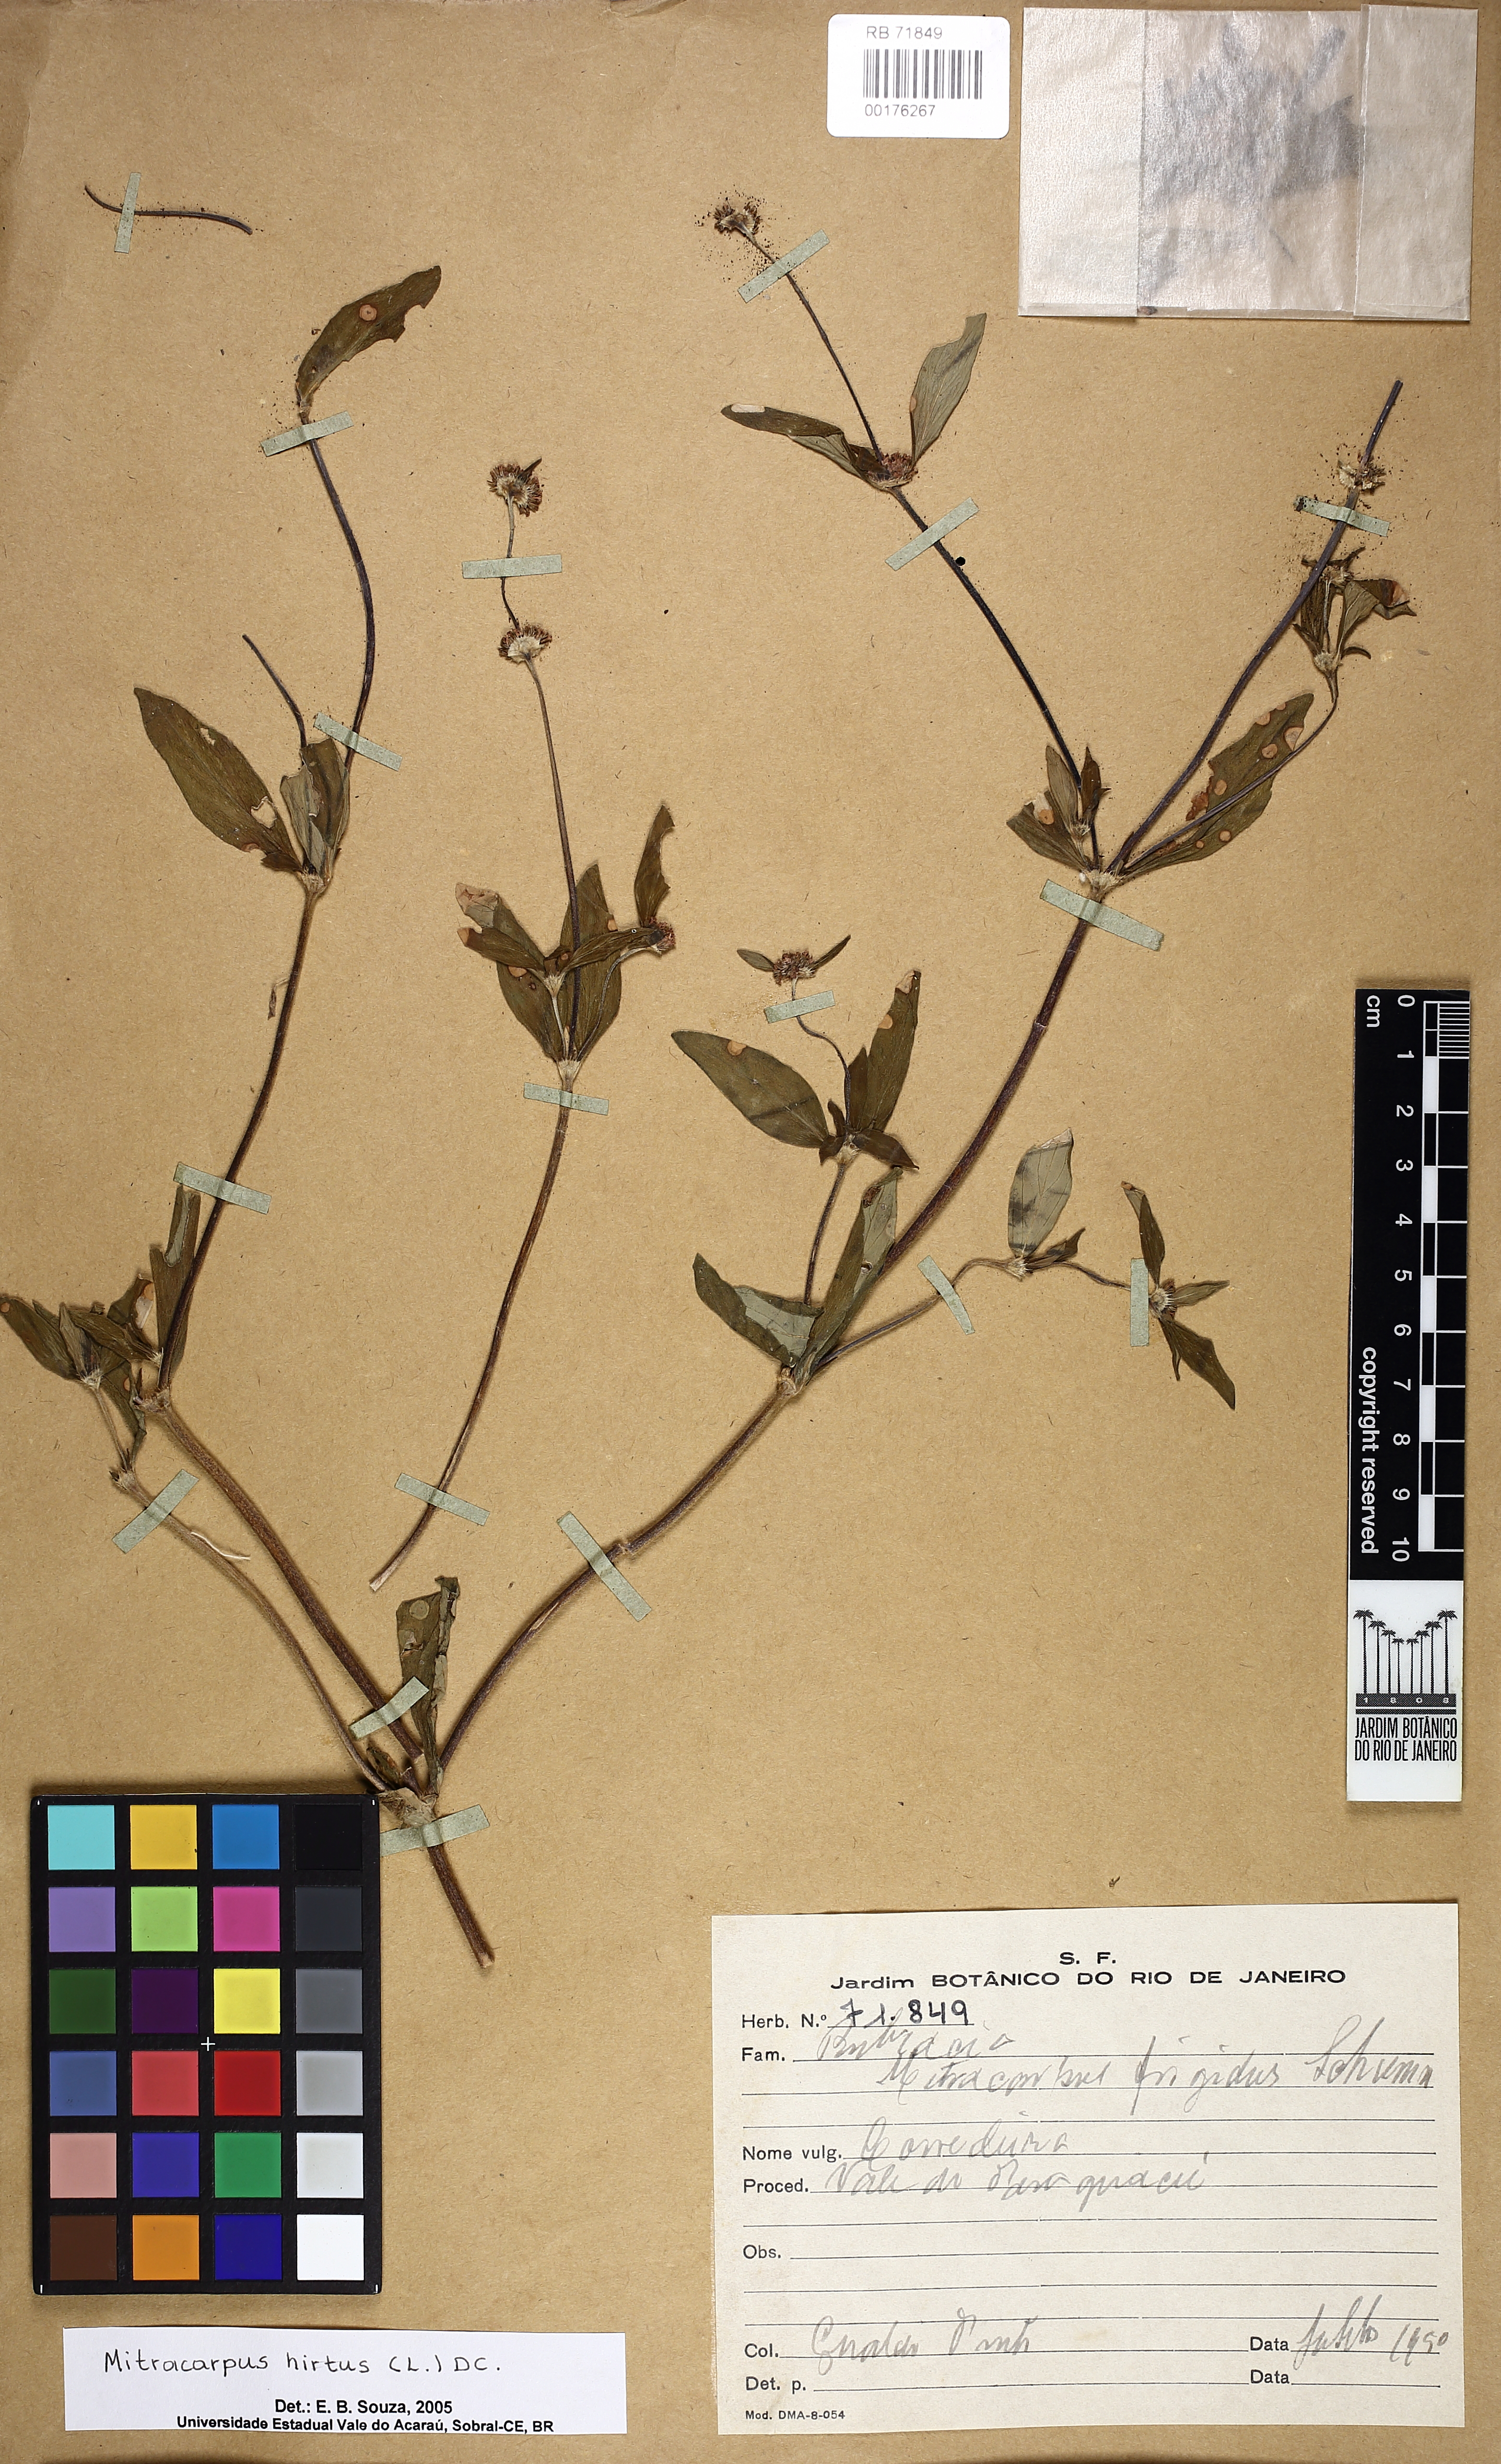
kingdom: Plantae
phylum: Tracheophyta
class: Magnoliopsida
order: Gentianales
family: Rubiaceae
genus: Mitracarpus
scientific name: Mitracarpus hirtus
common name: Tropical girdlepod
